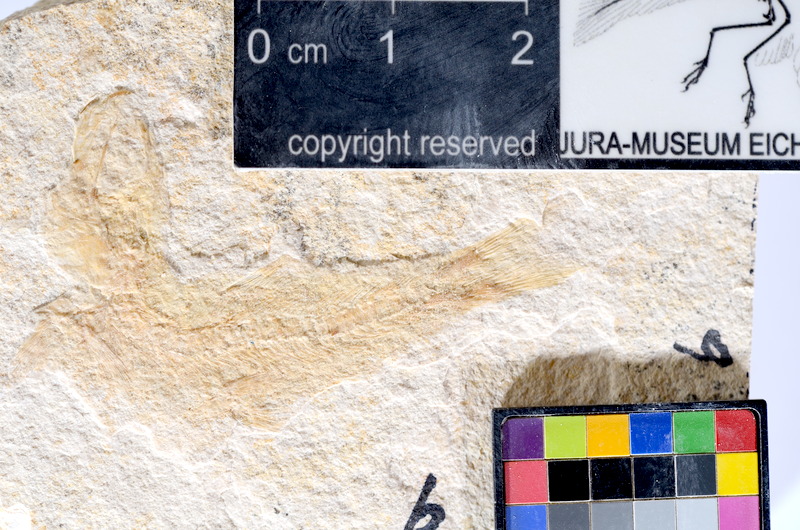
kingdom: Animalia
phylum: Chordata
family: Ascalaboidae
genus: Tharsis
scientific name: Tharsis dubius
